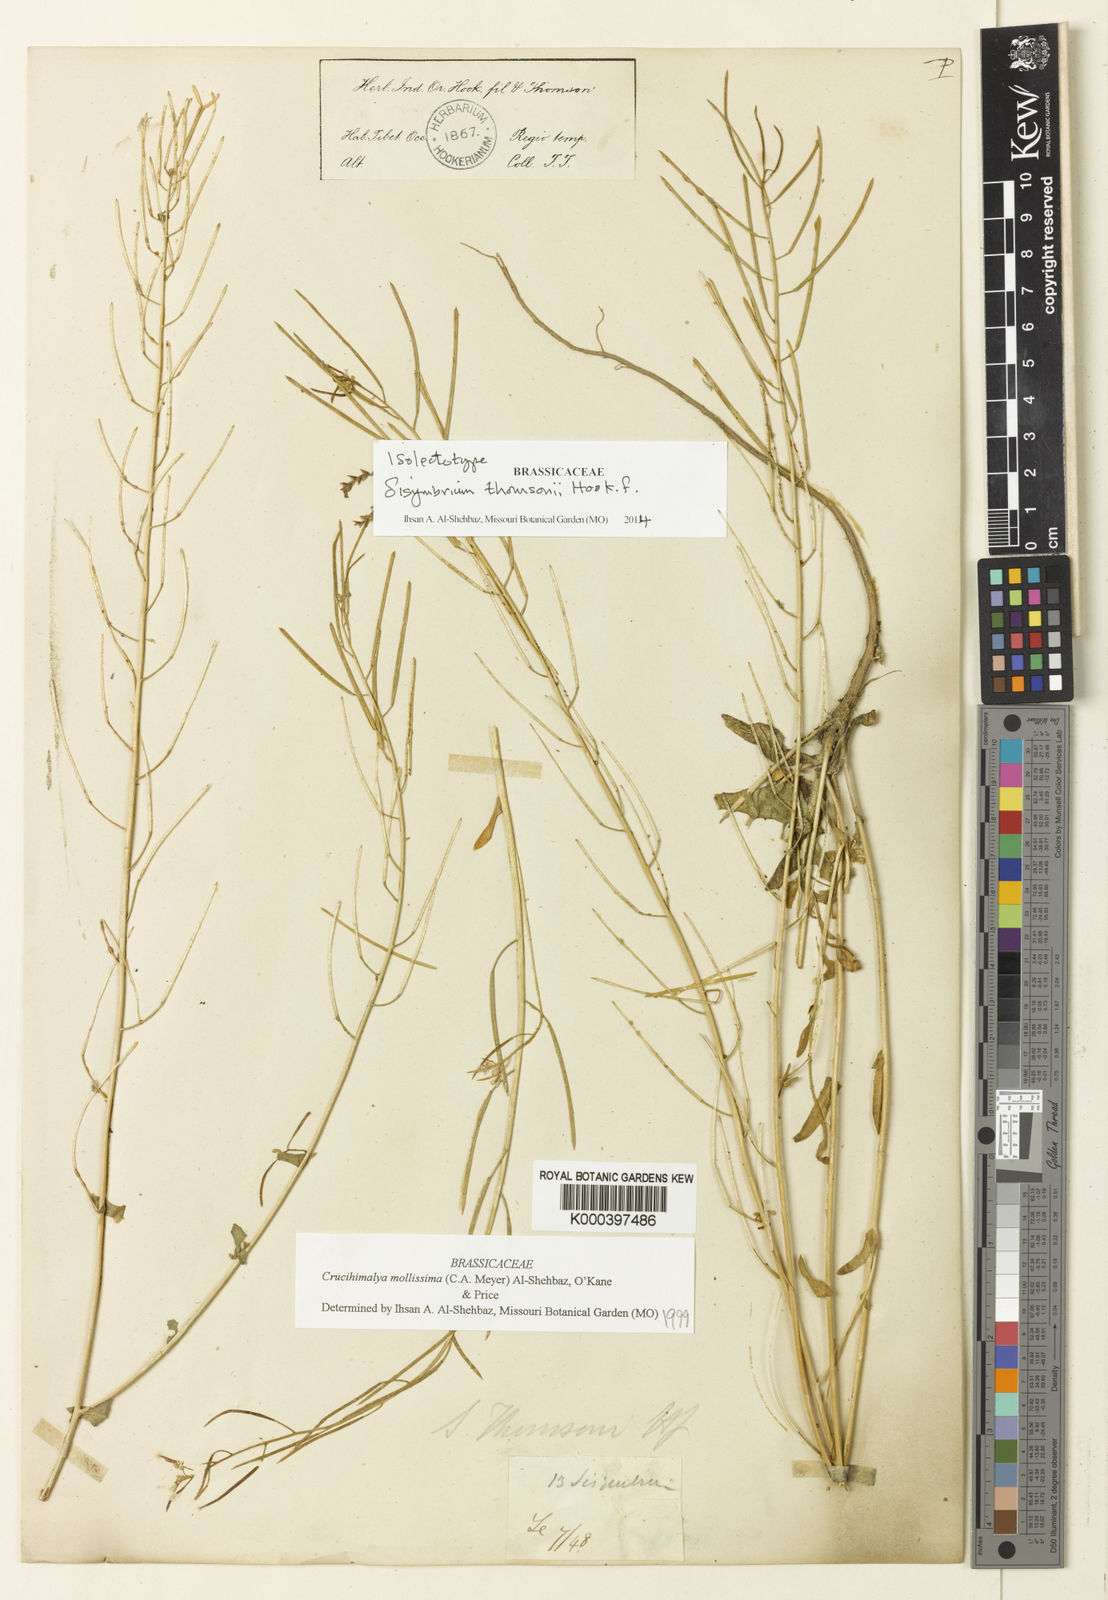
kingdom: Plantae
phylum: Tracheophyta
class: Magnoliopsida
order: Brassicales
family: Brassicaceae
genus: Crucihimalaya
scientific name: Crucihimalaya mollissima
